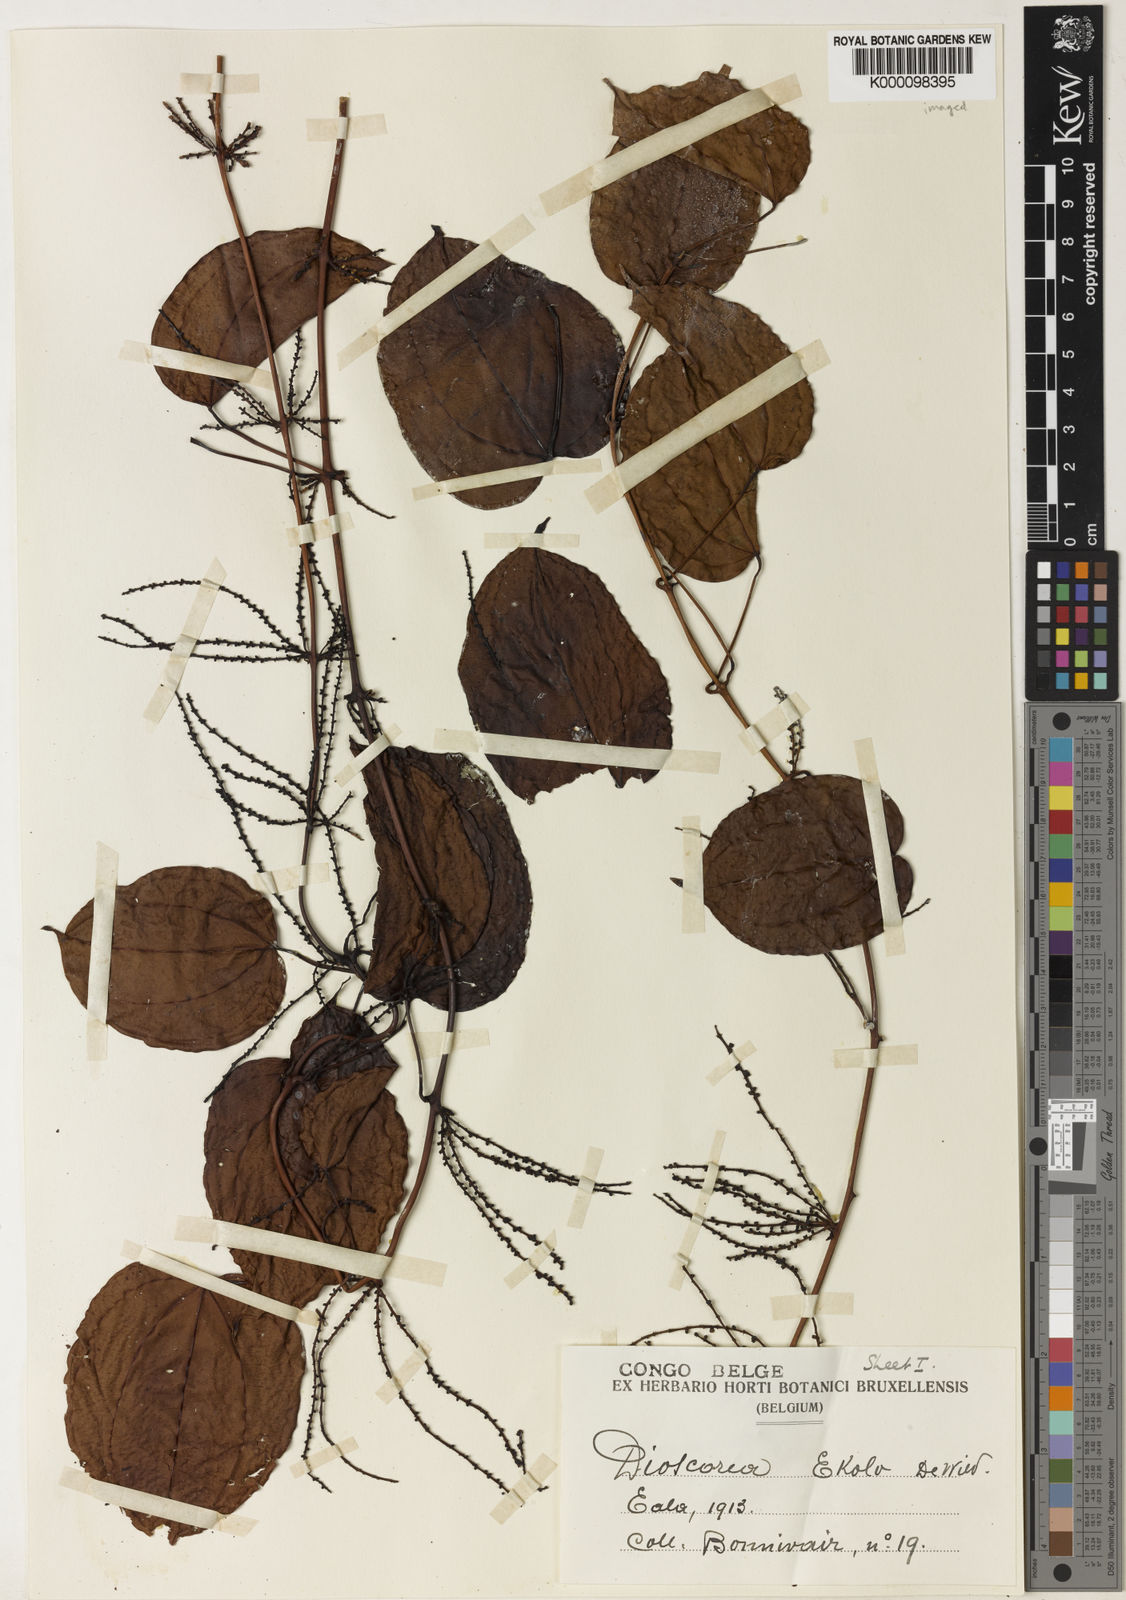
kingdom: Plantae
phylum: Tracheophyta
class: Liliopsida
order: Dioscoreales
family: Dioscoreaceae
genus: Dioscorea
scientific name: Dioscorea minutiflora
